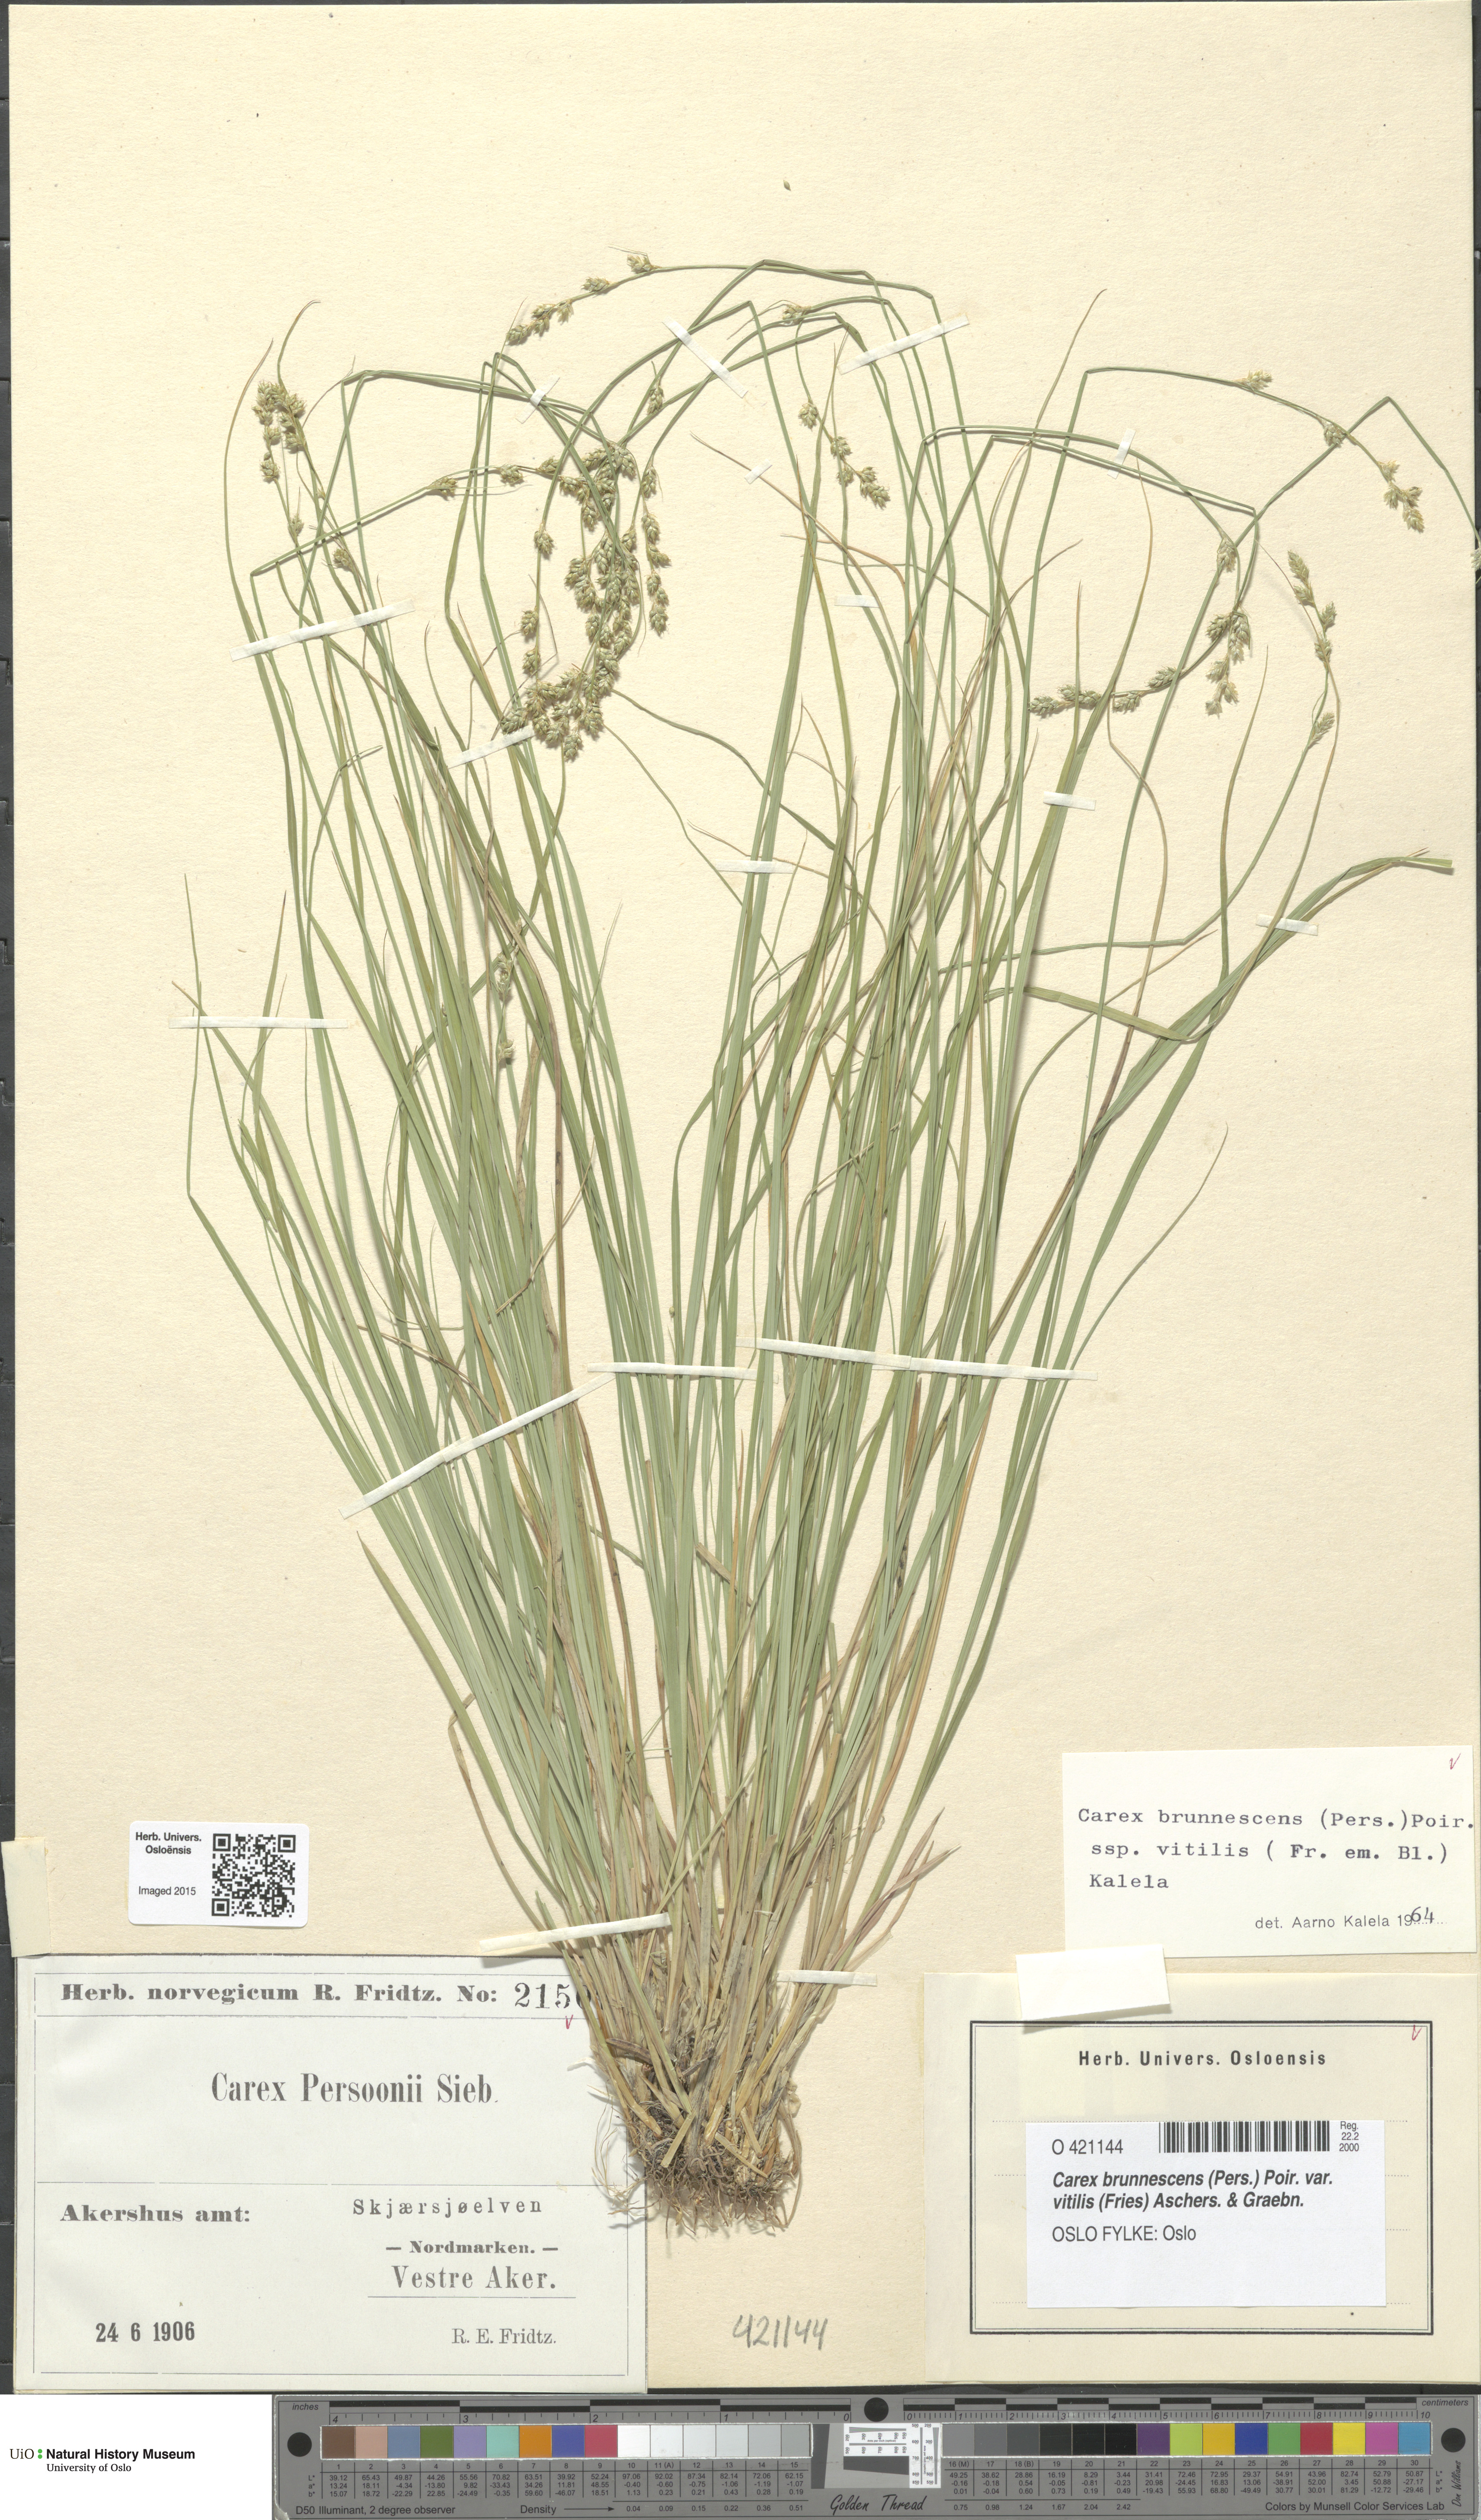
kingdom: Plantae
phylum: Tracheophyta
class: Liliopsida
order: Poales
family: Cyperaceae
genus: Carex
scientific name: Carex brunnescens
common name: Brown sedge
